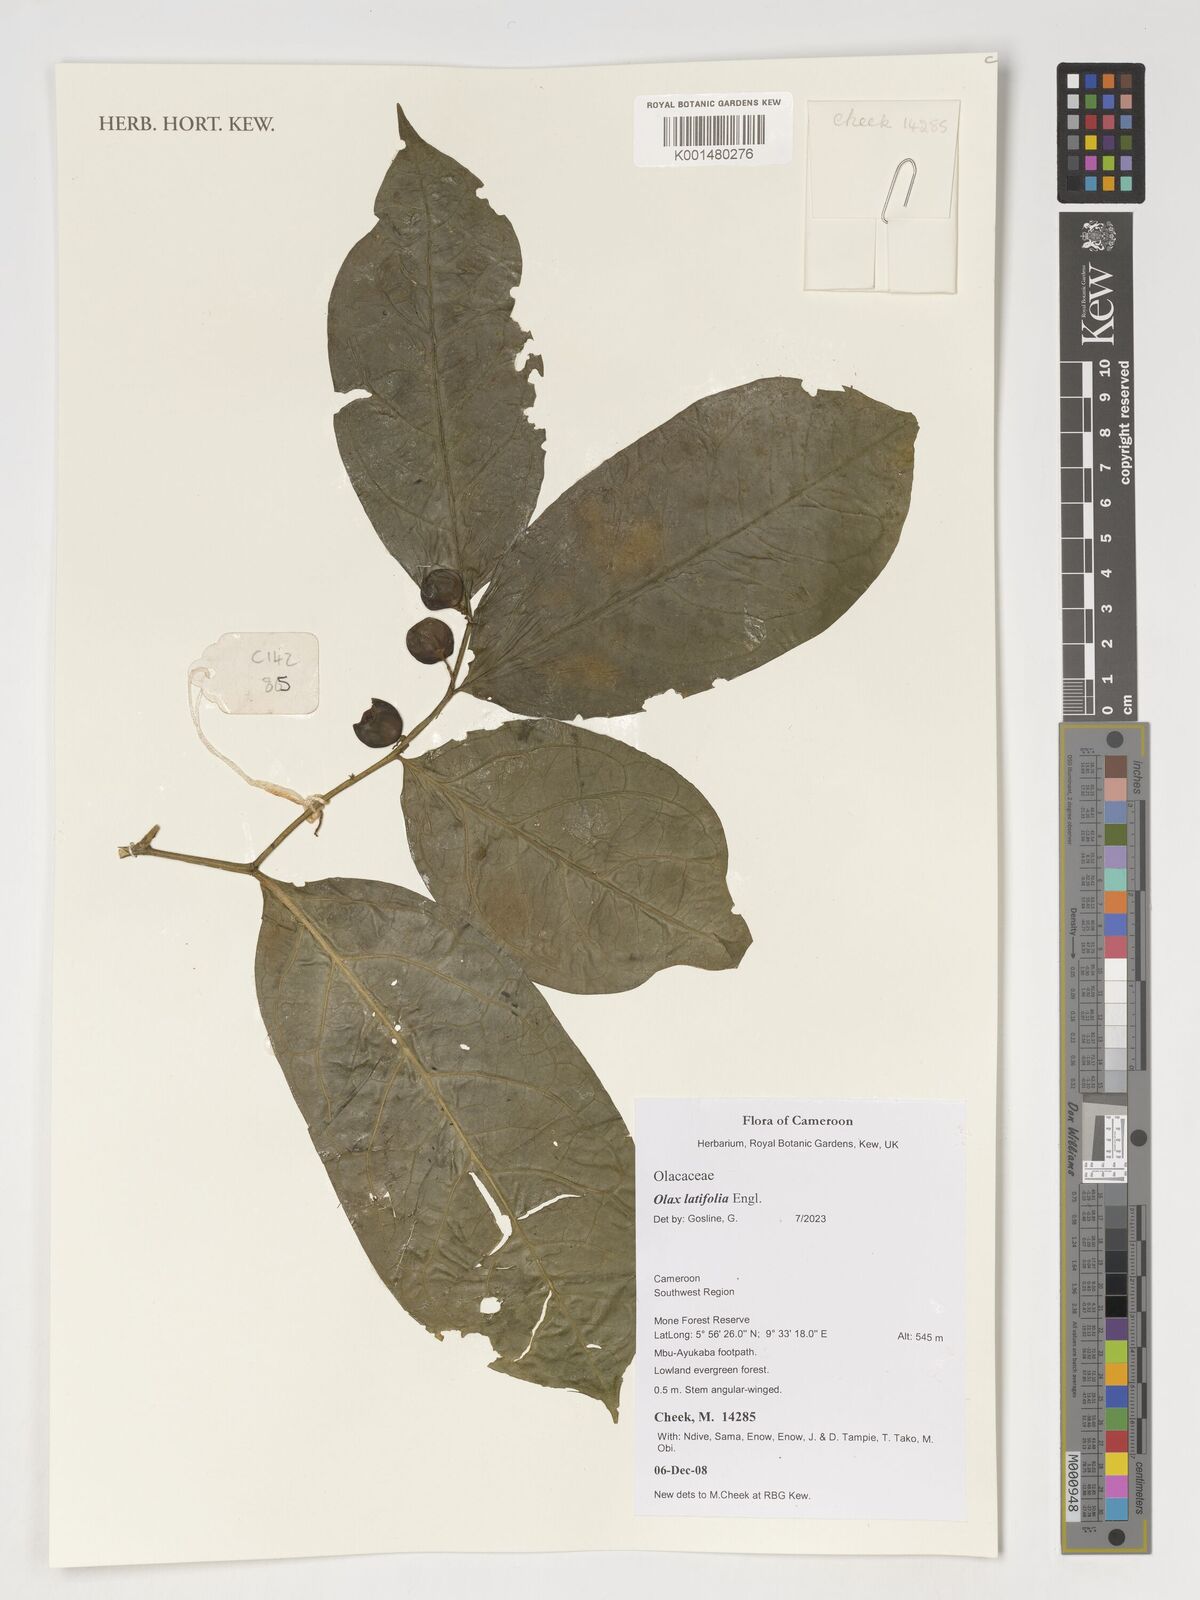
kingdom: Plantae
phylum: Tracheophyta
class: Magnoliopsida
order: Santalales
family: Olacaceae
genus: Olax
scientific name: Olax latifolia
